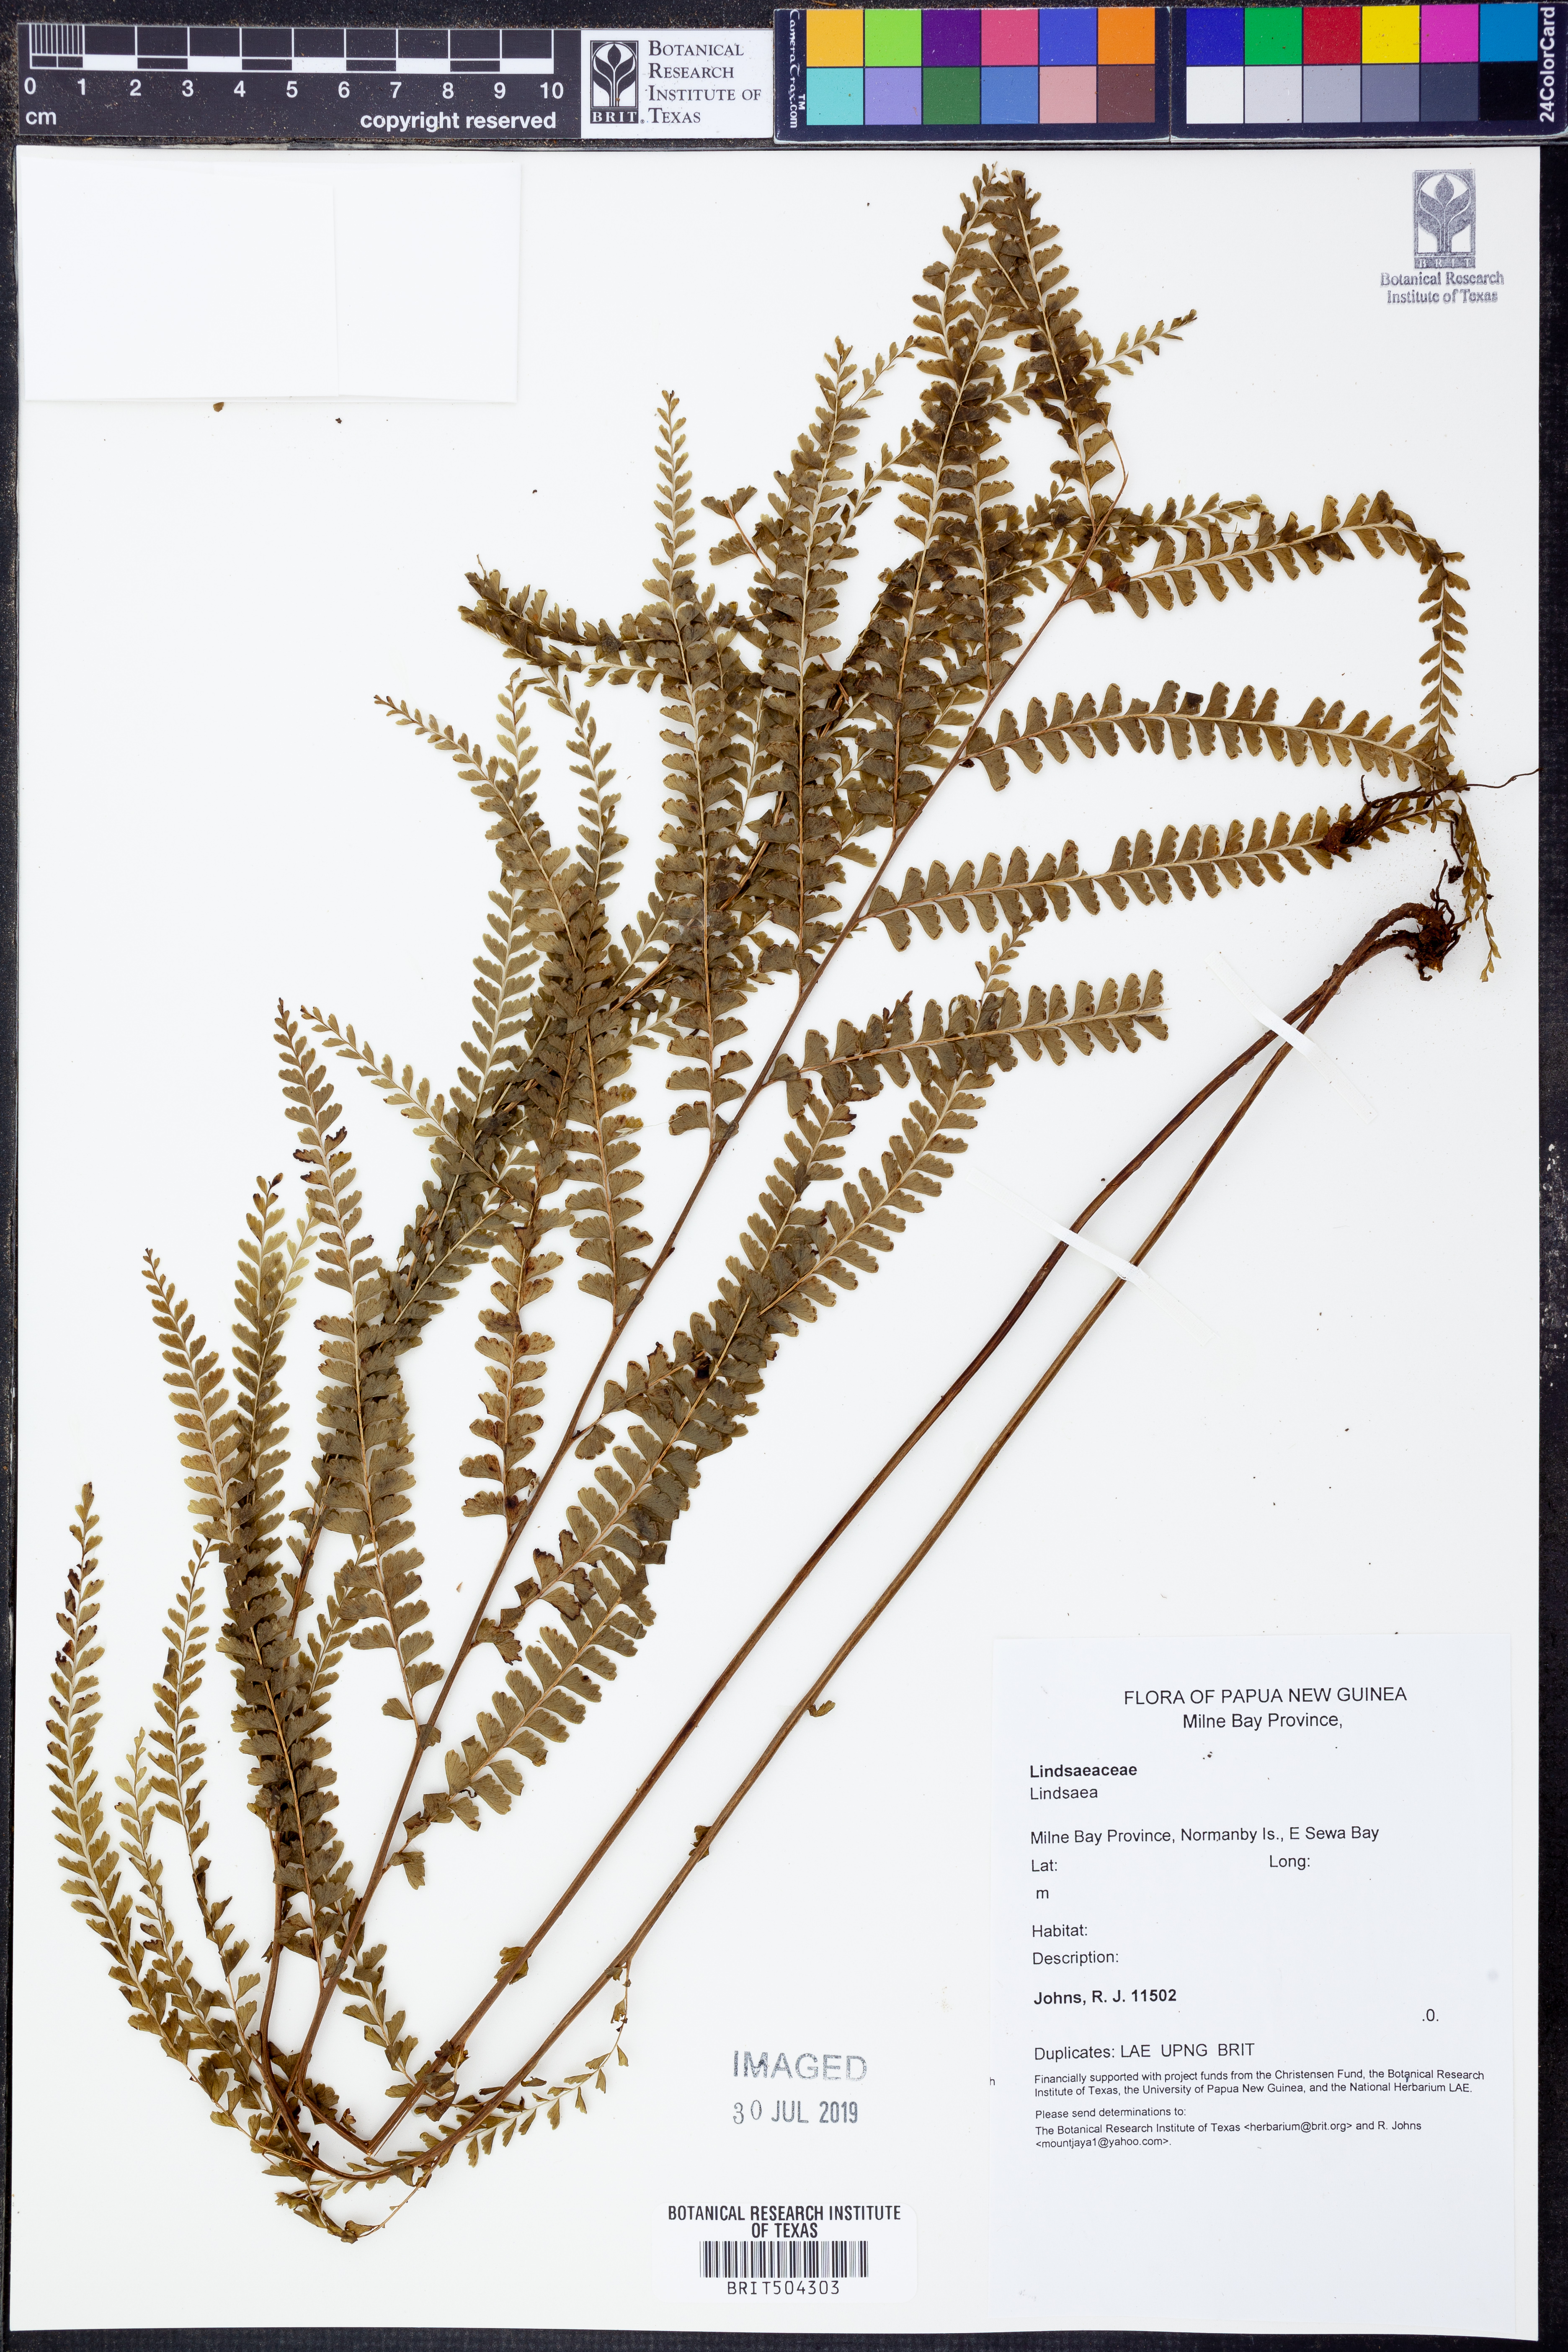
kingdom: Plantae
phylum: Tracheophyta
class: Polypodiopsida
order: Polypodiales
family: Lindsaeaceae
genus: Lindsaea
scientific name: Lindsaea
